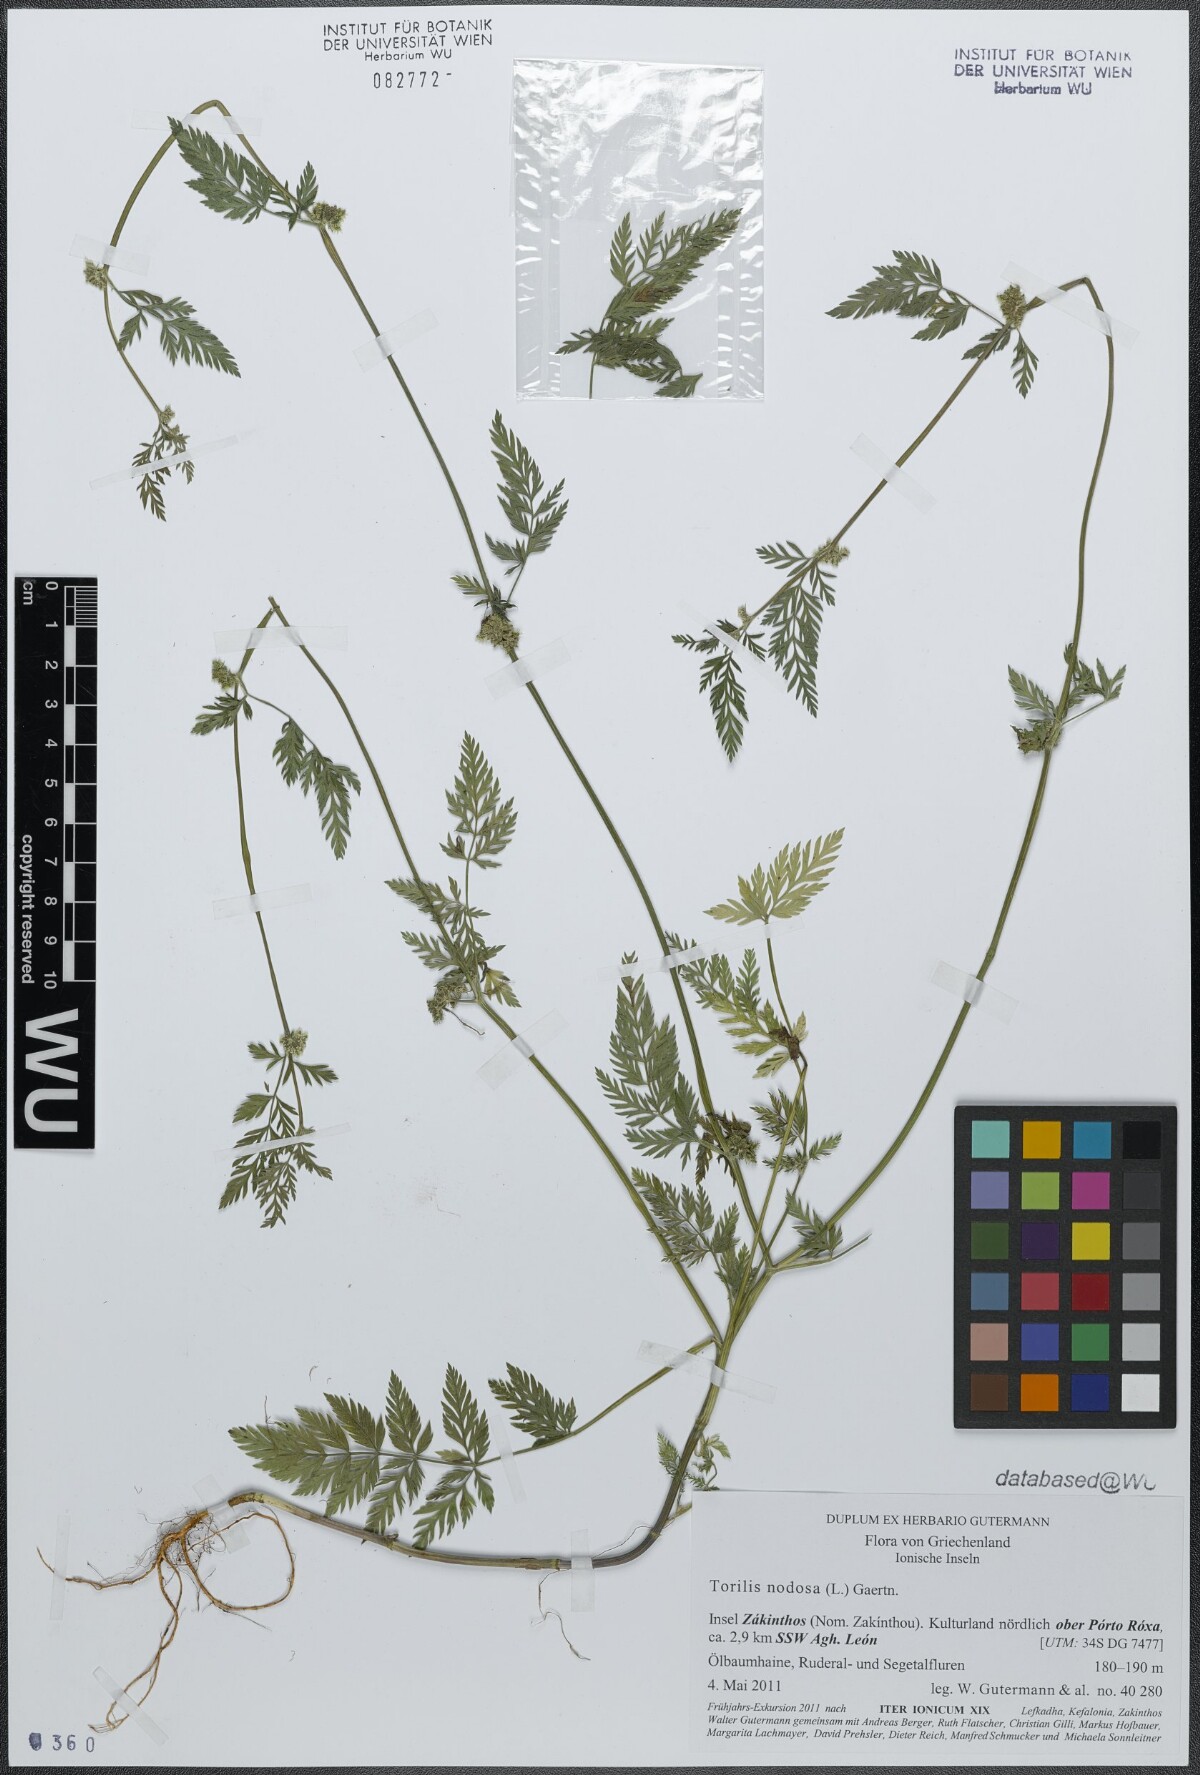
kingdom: Plantae
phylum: Tracheophyta
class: Magnoliopsida
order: Apiales
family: Apiaceae
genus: Torilis
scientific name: Torilis nodosa
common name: Knotted hedge-parsley
